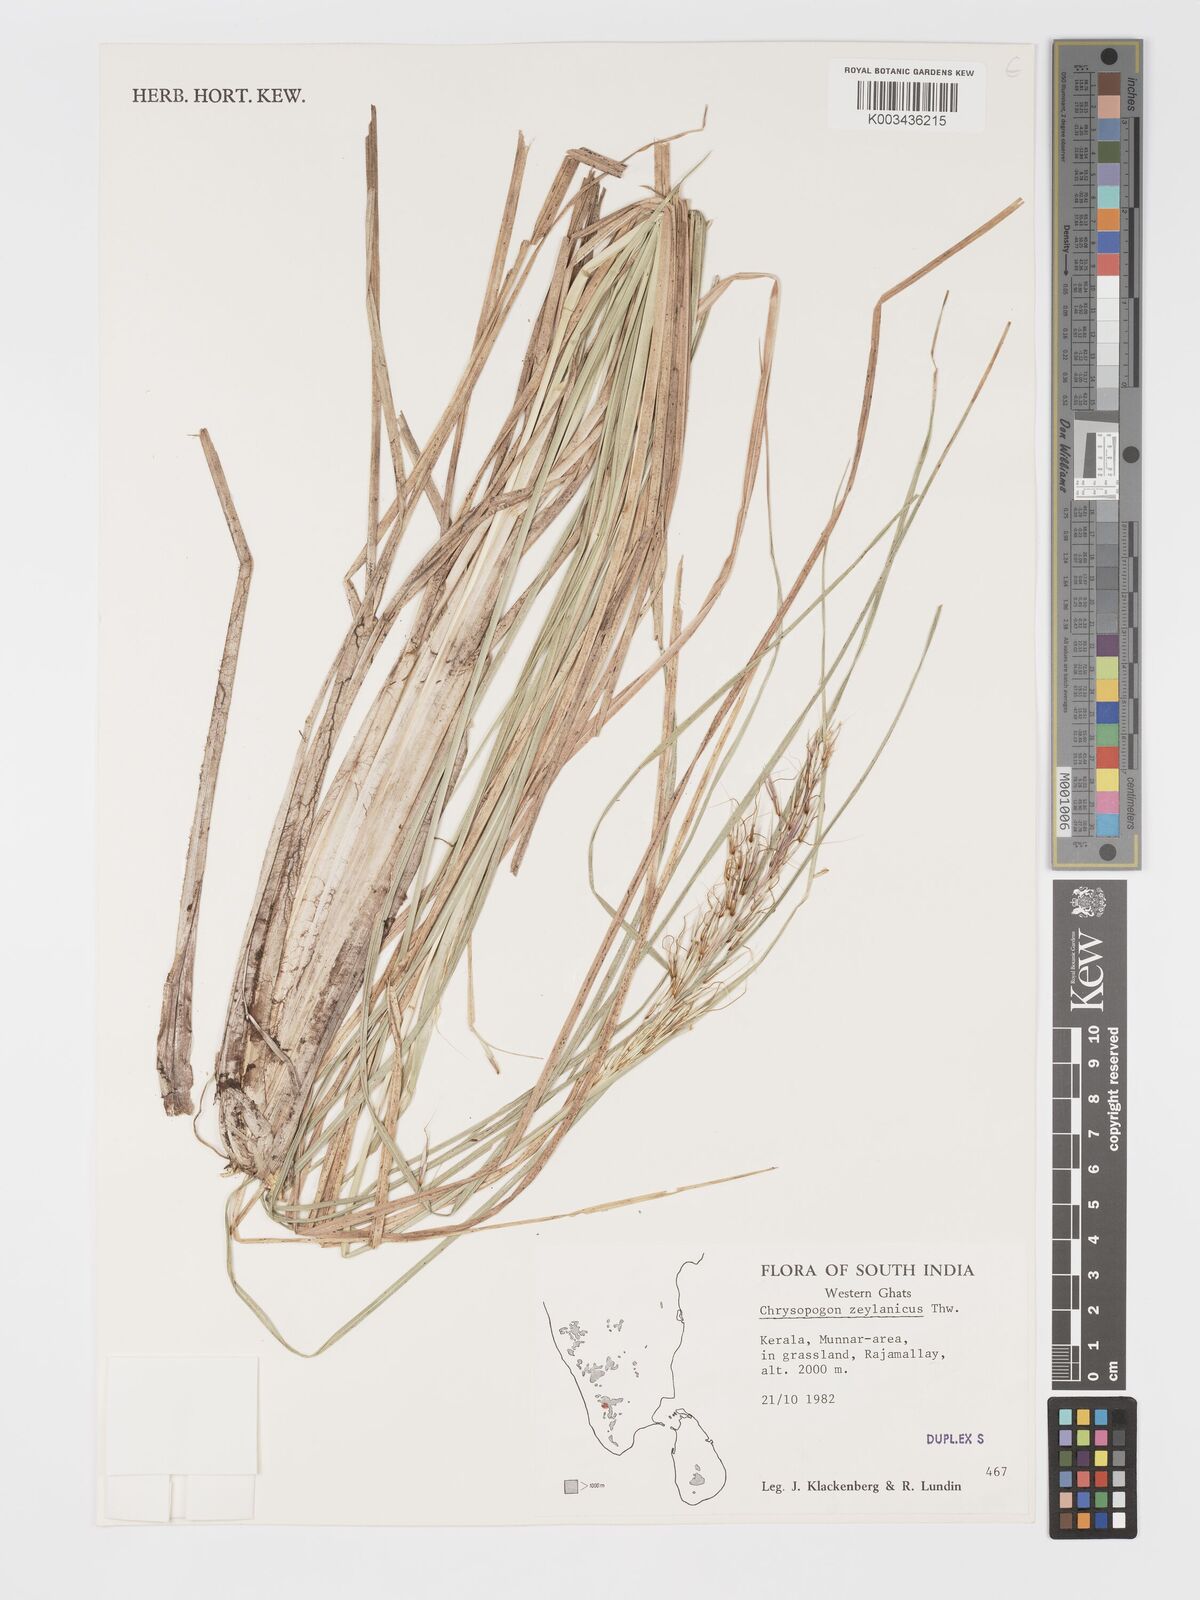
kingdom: Plantae
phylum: Tracheophyta
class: Liliopsida
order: Poales
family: Poaceae
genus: Chrysopogon
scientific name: Chrysopogon nodulibarbis
